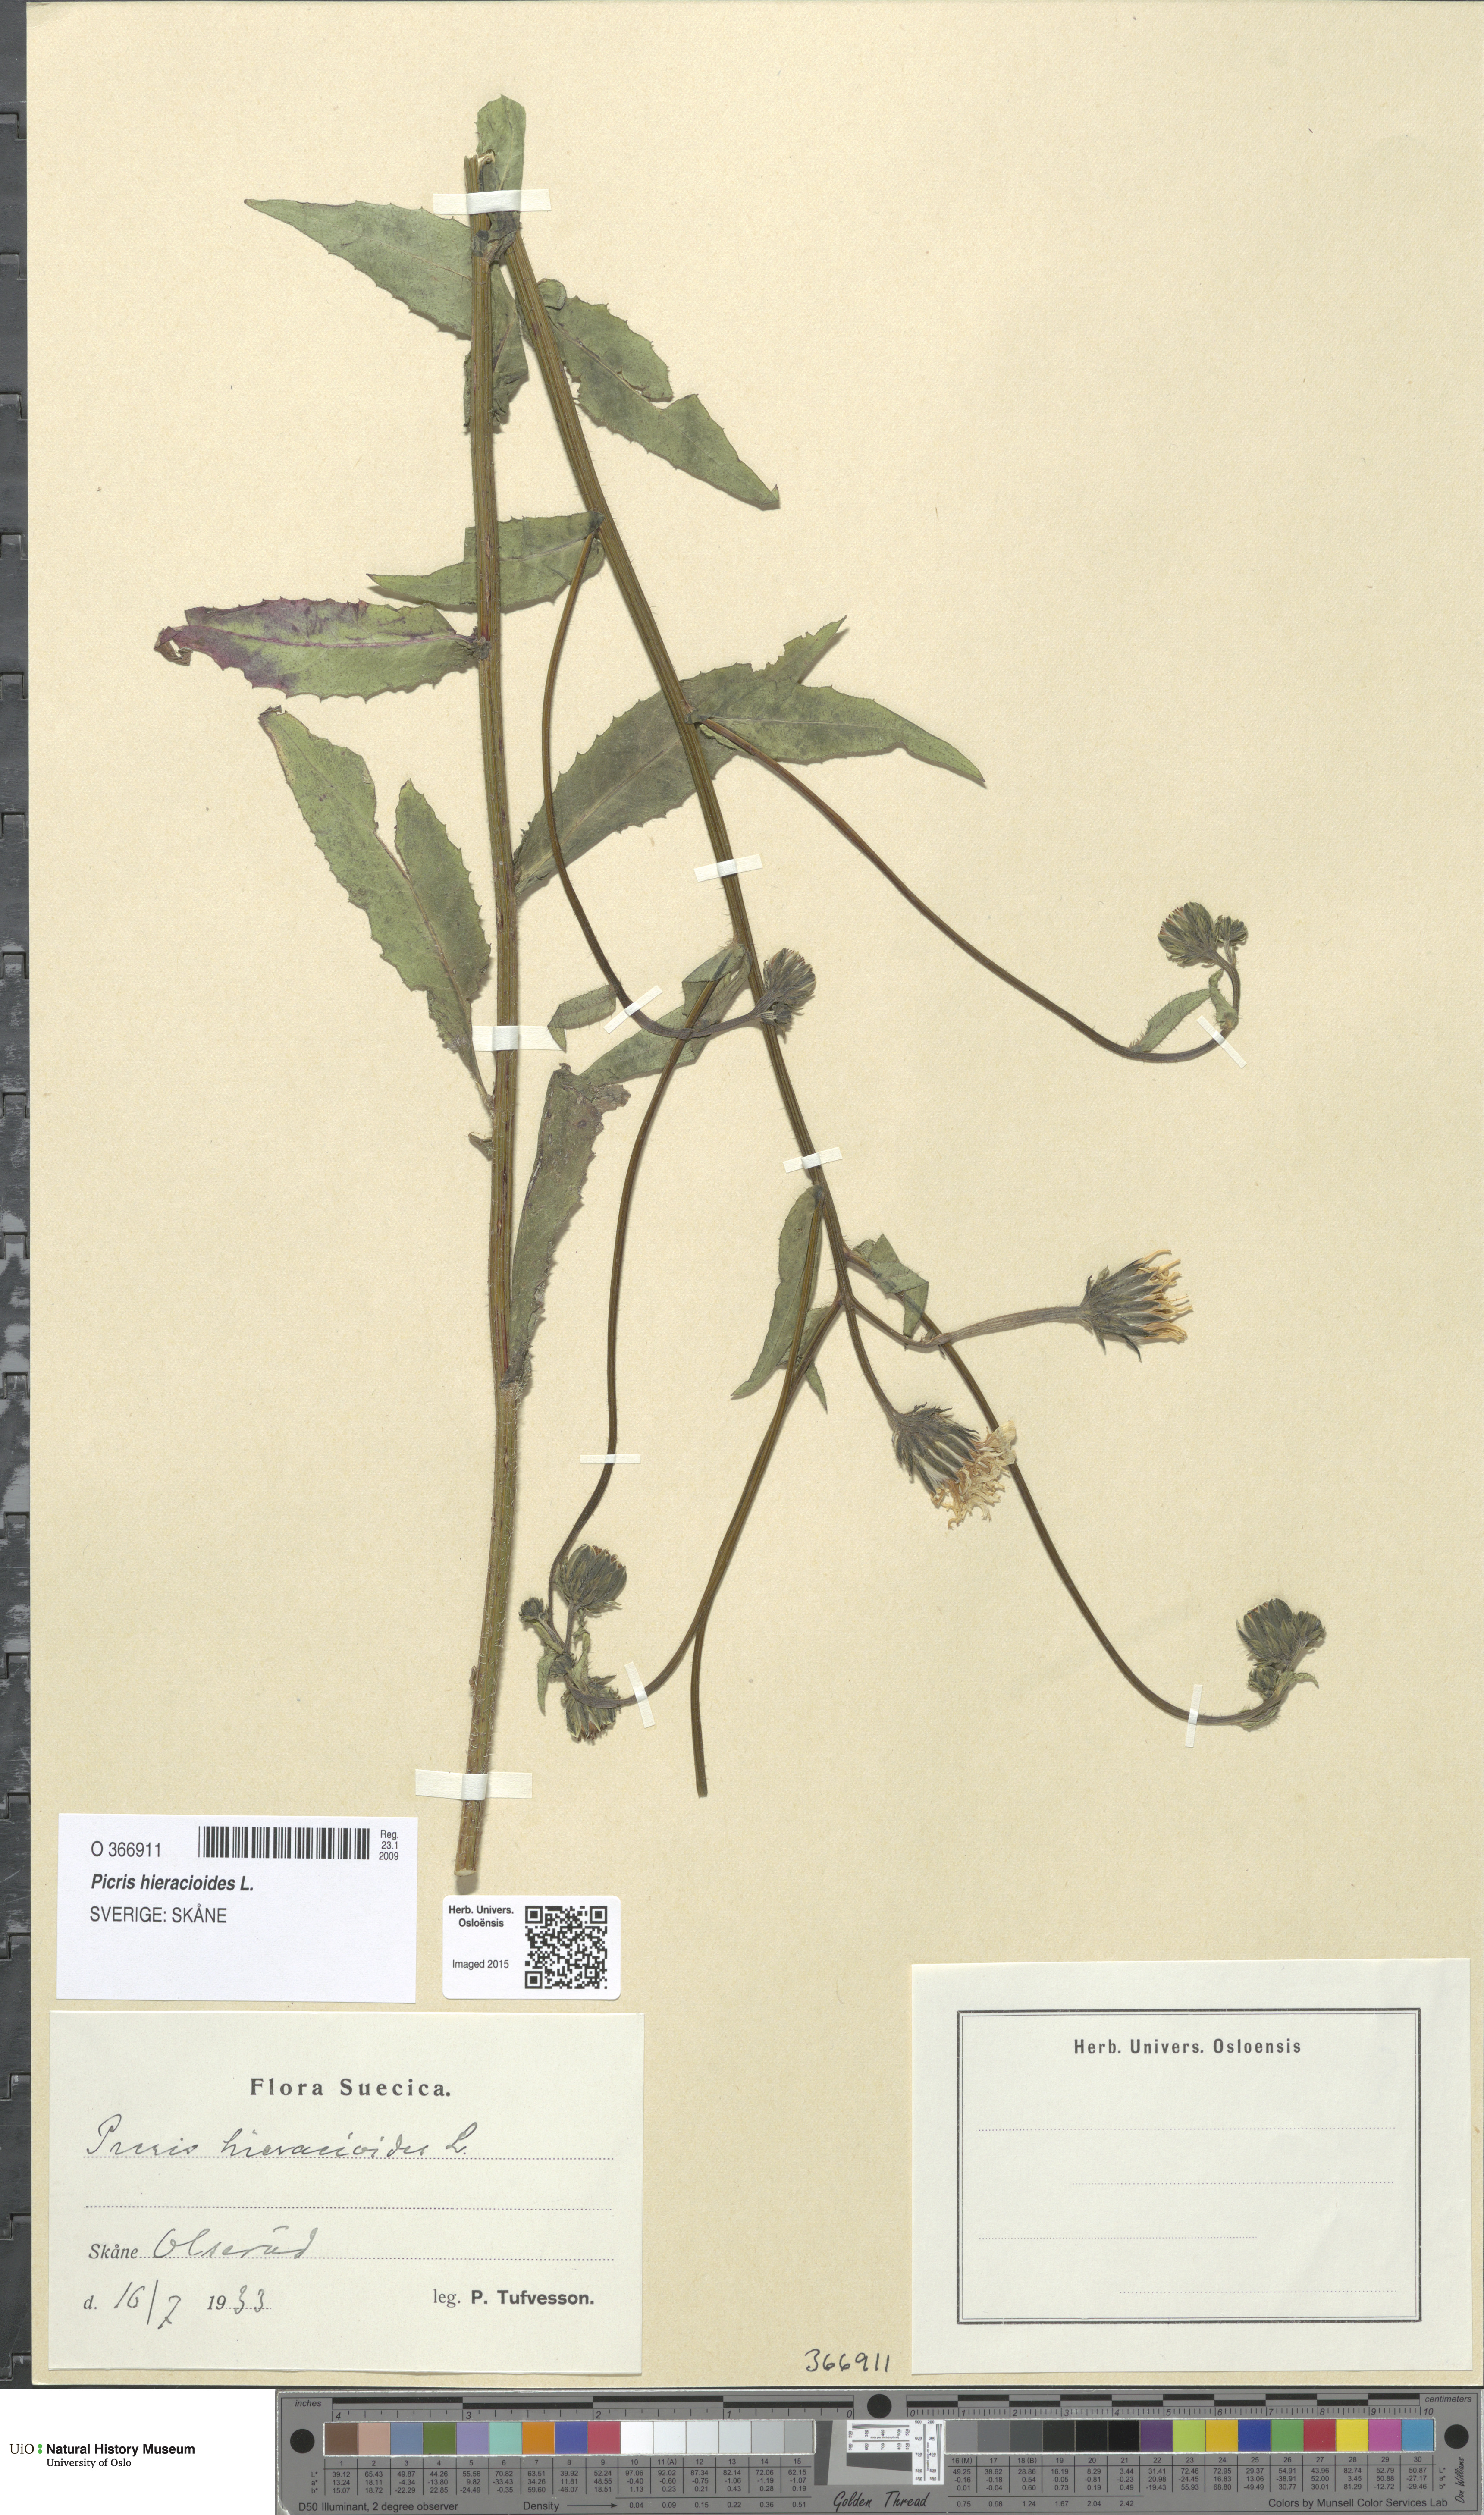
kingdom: Plantae
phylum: Tracheophyta
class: Magnoliopsida
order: Asterales
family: Asteraceae
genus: Picris
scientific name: Picris hieracioides
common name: Hawkweed oxtongue
